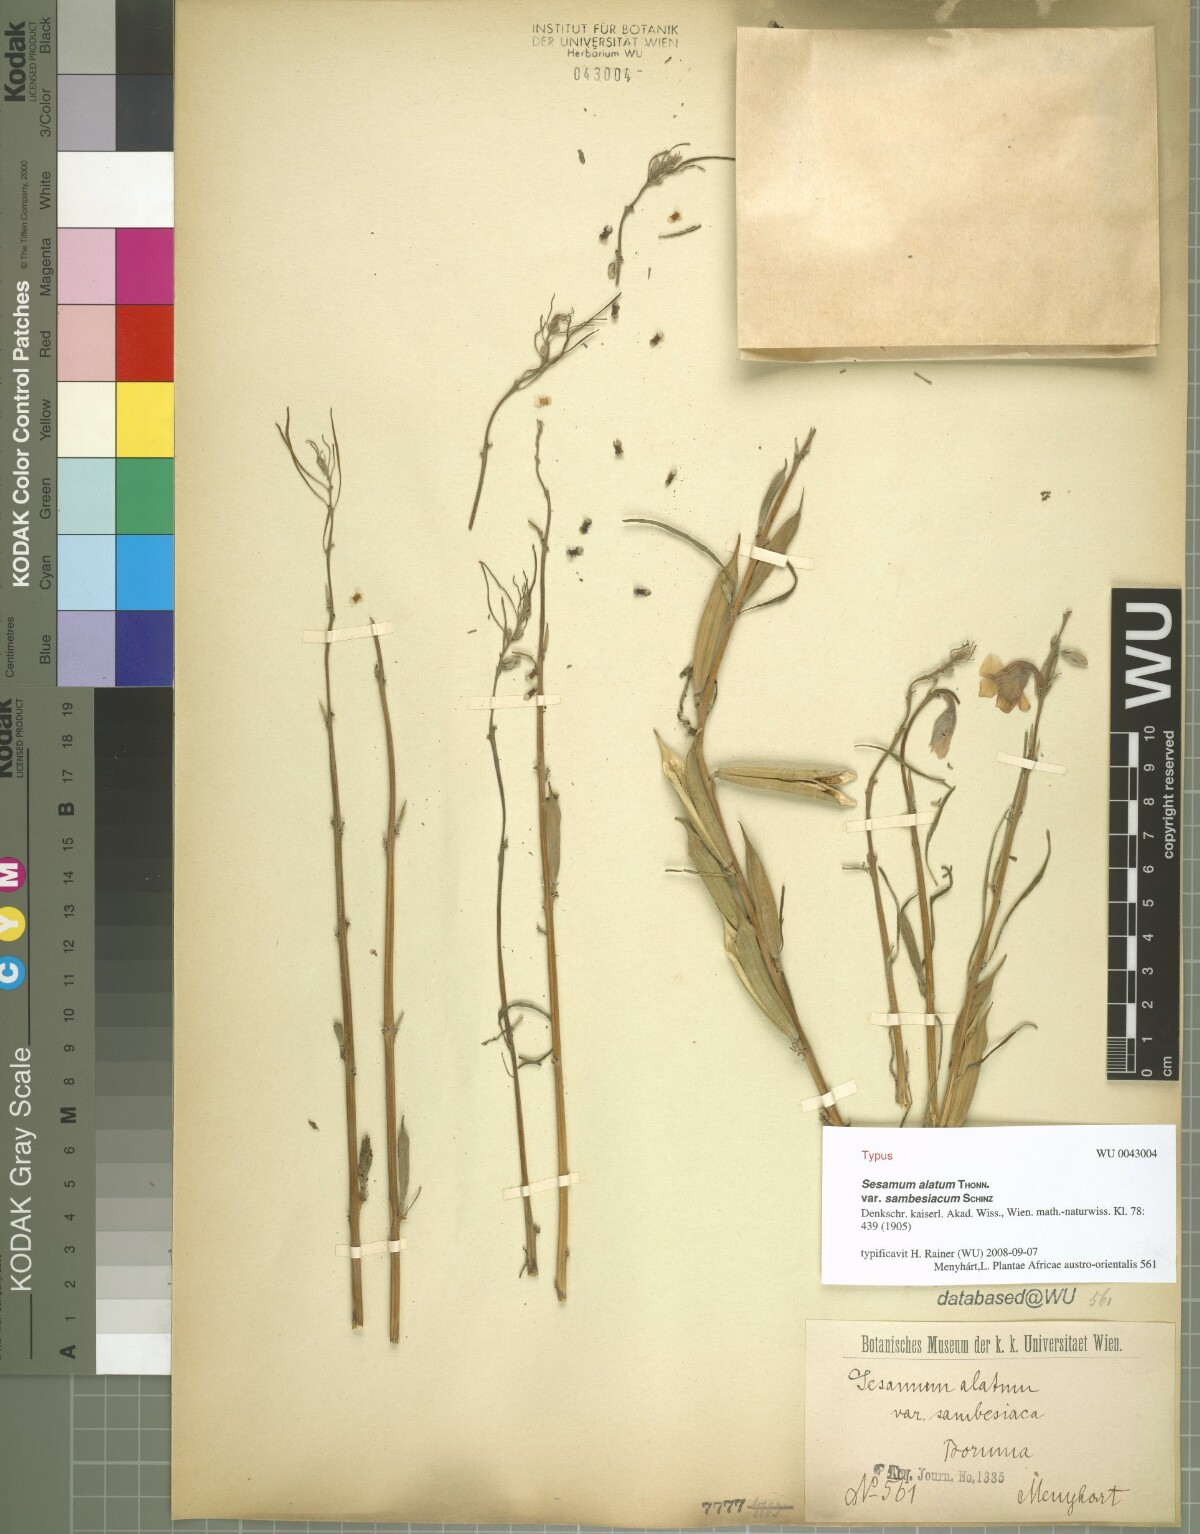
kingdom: Plantae
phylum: Tracheophyta
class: Magnoliopsida
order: Lamiales
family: Pedaliaceae
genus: Sesamum
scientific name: Sesamum alatum
